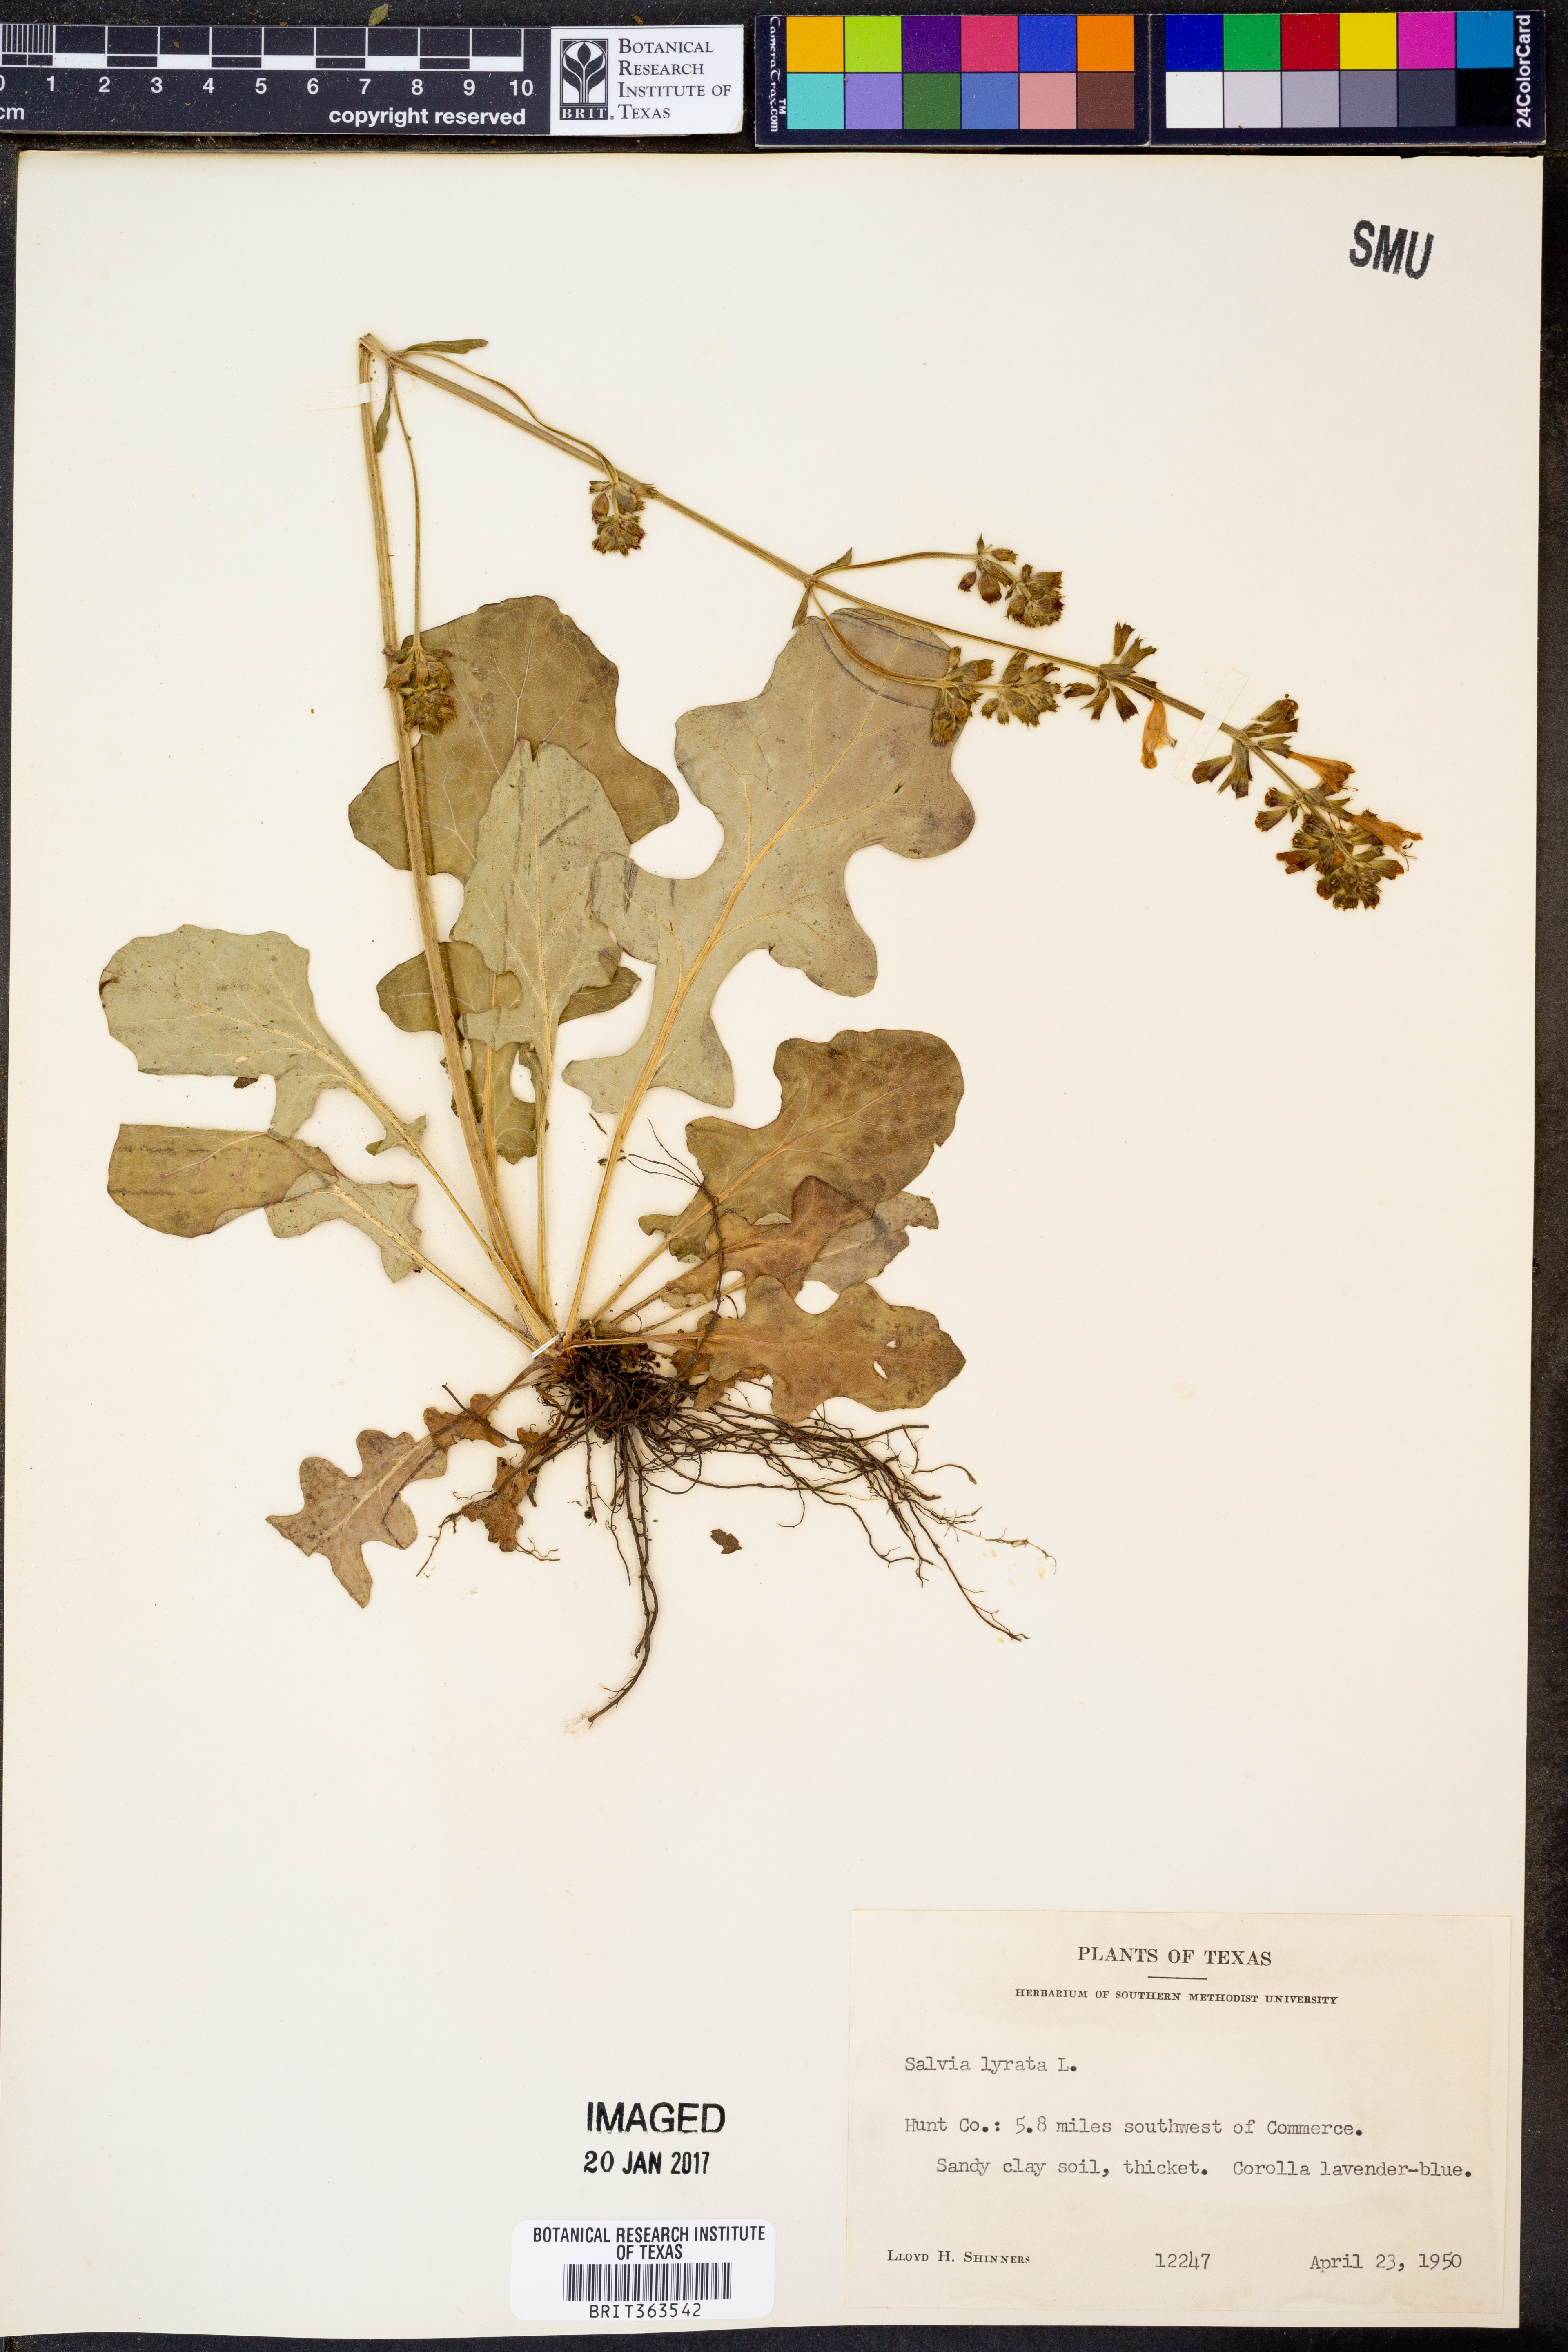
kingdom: Plantae
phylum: Tracheophyta
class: Magnoliopsida
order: Lamiales
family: Lamiaceae
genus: Salvia
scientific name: Salvia lyrata
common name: Cancerweed
